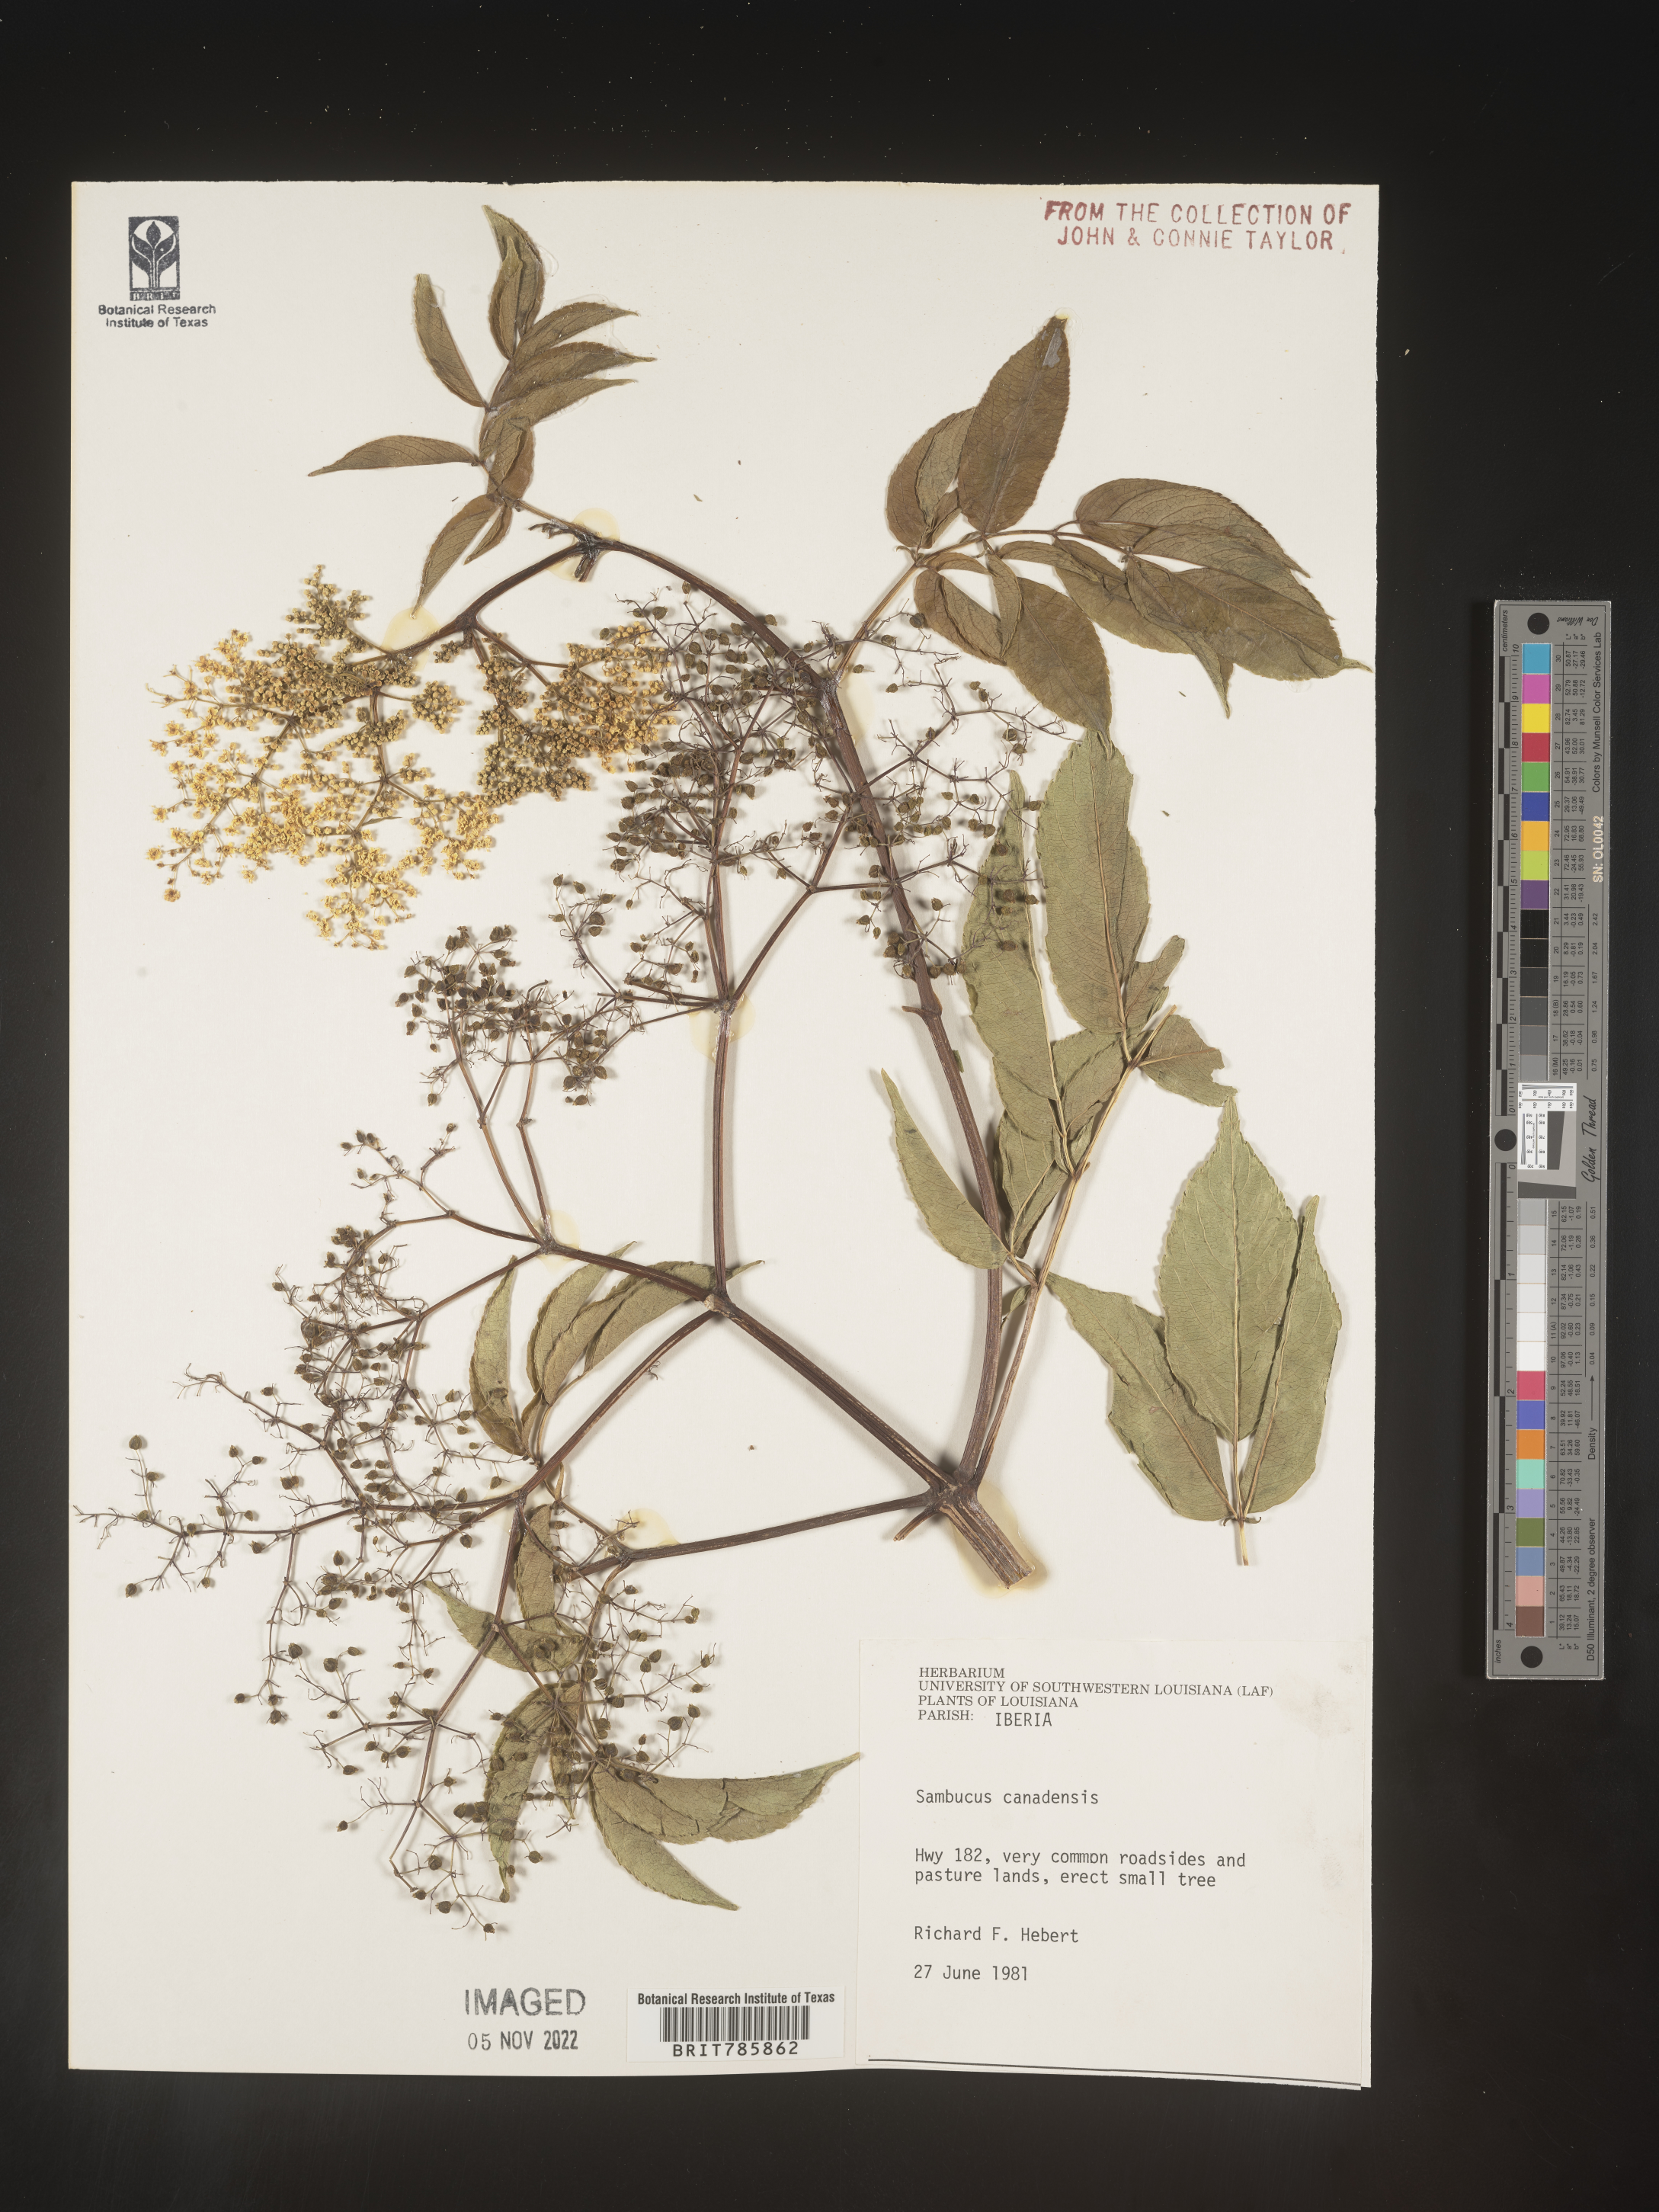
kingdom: Plantae
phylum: Tracheophyta
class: Magnoliopsida
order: Dipsacales
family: Viburnaceae
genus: Sambucus
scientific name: Sambucus nigra
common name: Elder
